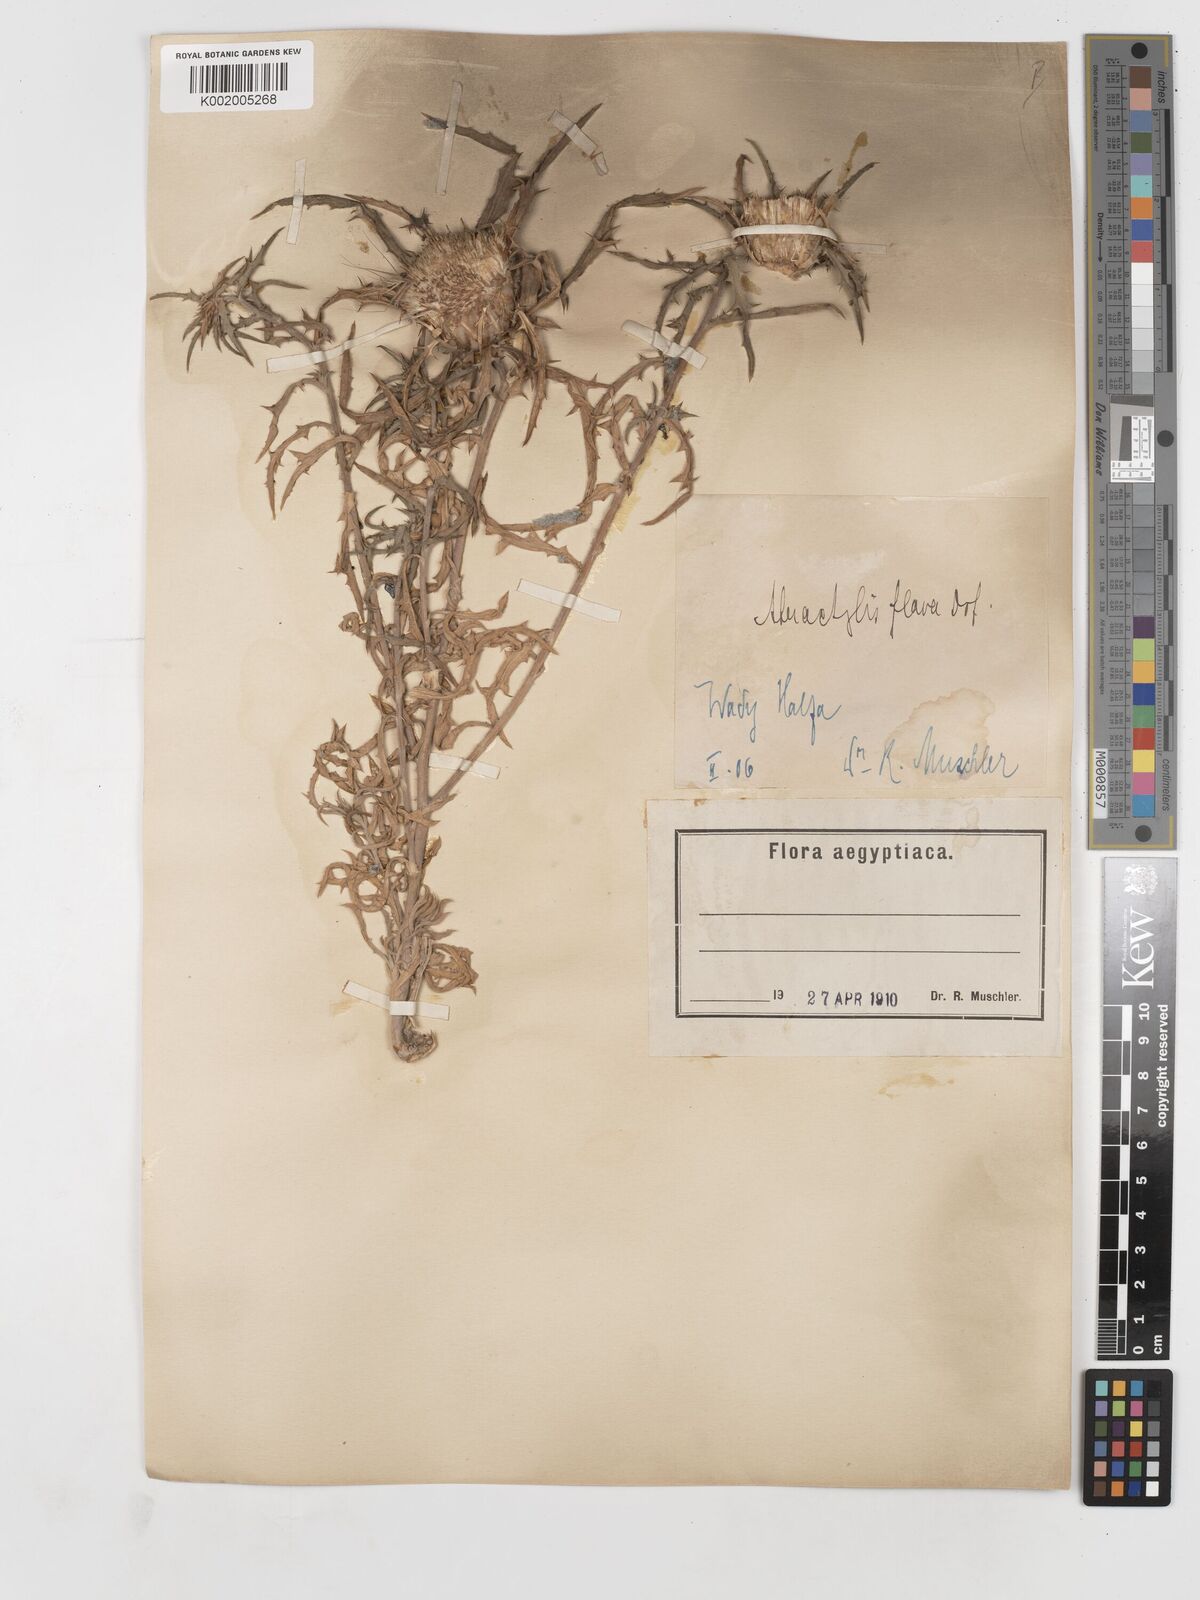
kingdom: Plantae
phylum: Tracheophyta
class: Magnoliopsida
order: Asterales
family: Asteraceae
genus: Atractylis
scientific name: Atractylis carduus
